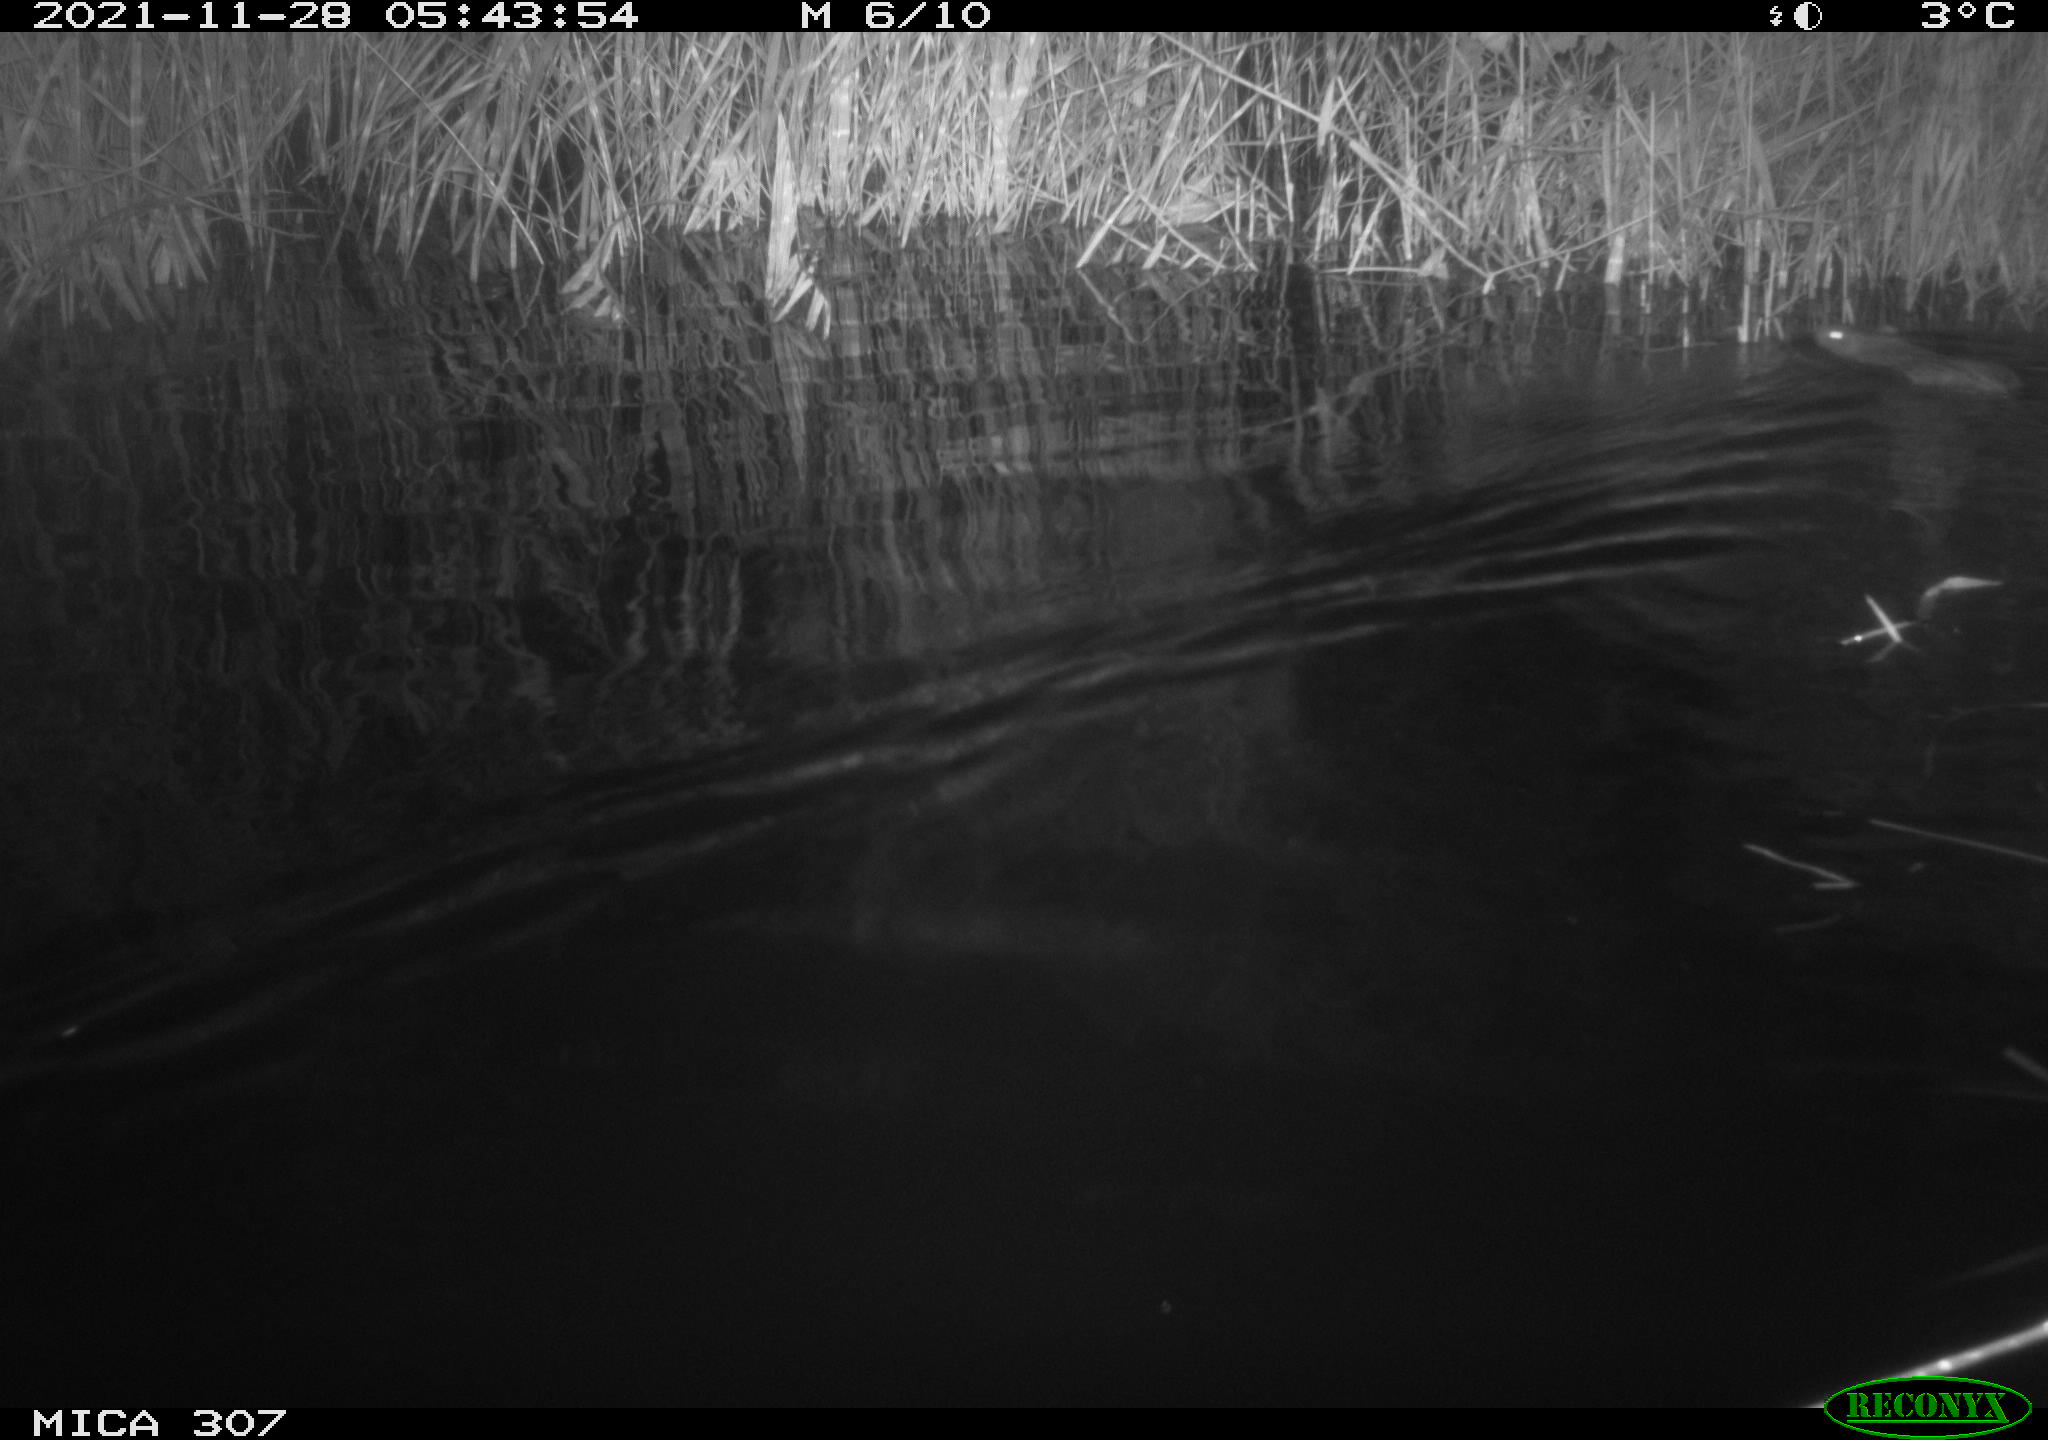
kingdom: Animalia
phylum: Chordata
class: Mammalia
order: Rodentia
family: Muridae
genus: Rattus
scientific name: Rattus norvegicus
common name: Brown rat
